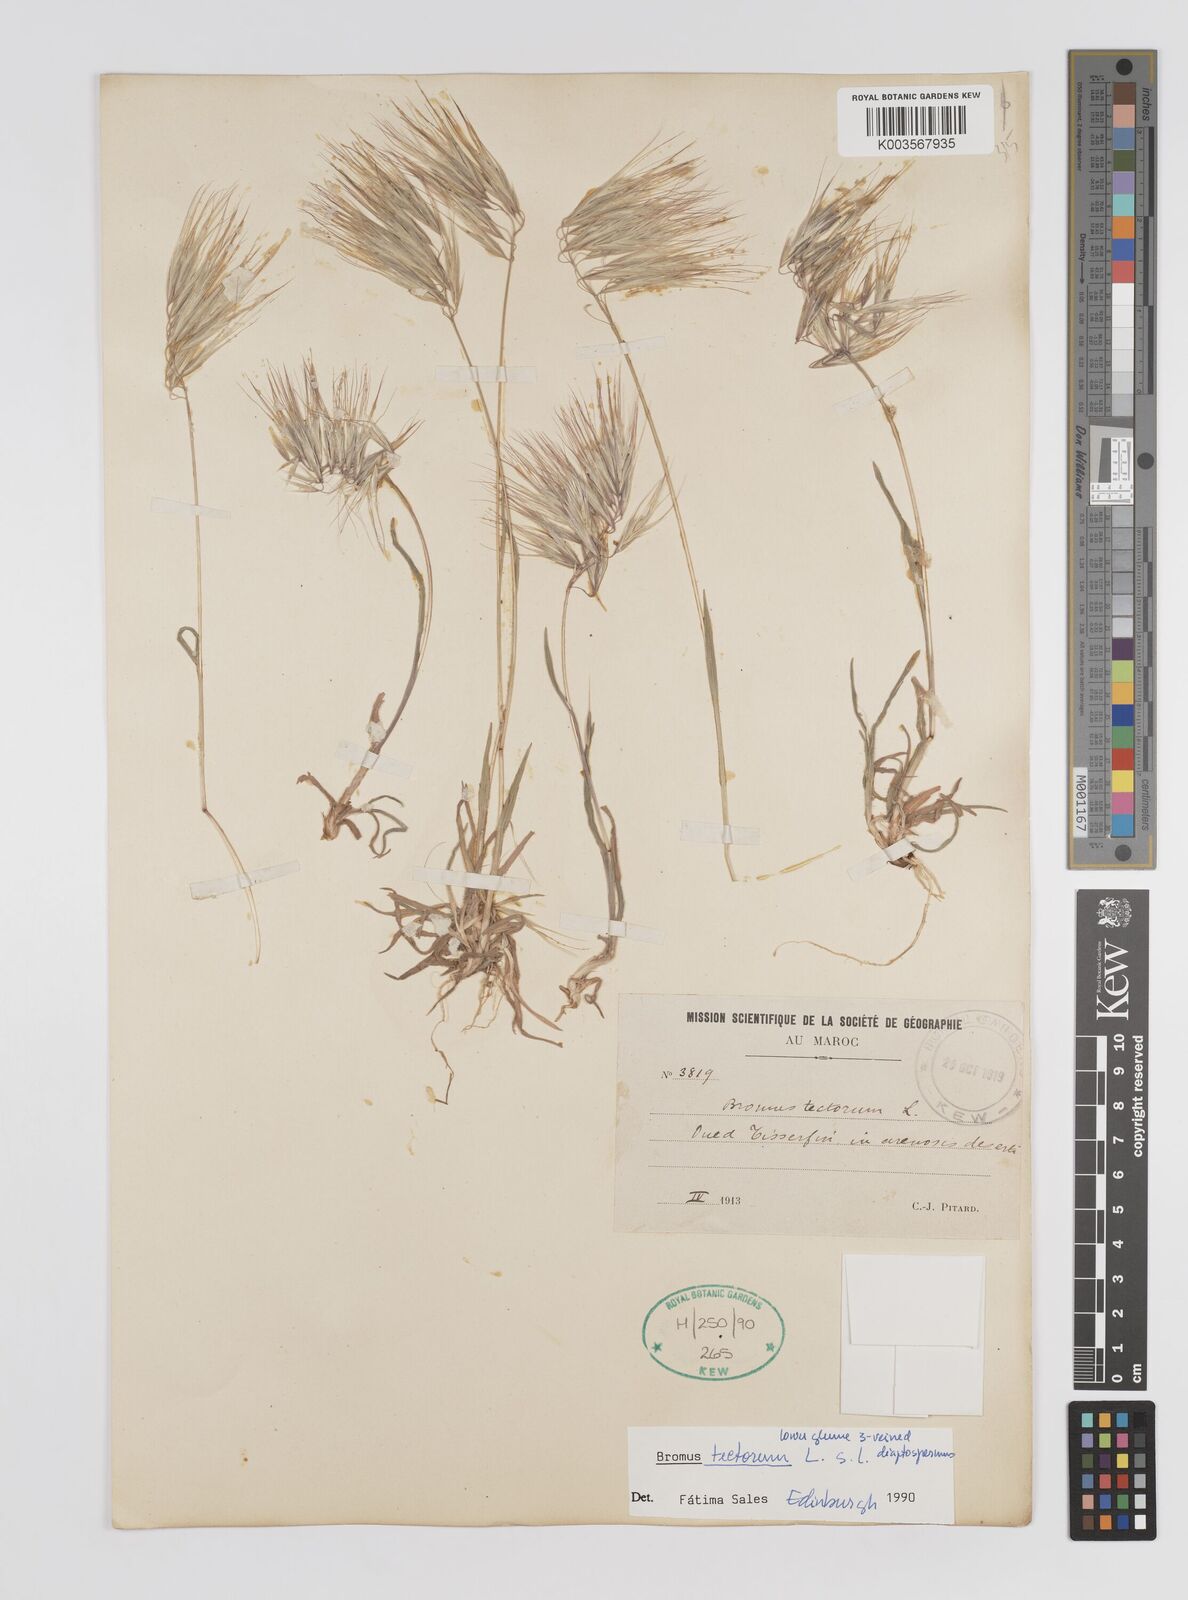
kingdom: Plantae
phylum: Tracheophyta
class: Liliopsida
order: Poales
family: Poaceae
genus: Bromus
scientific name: Bromus tectorum
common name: Cheatgrass
